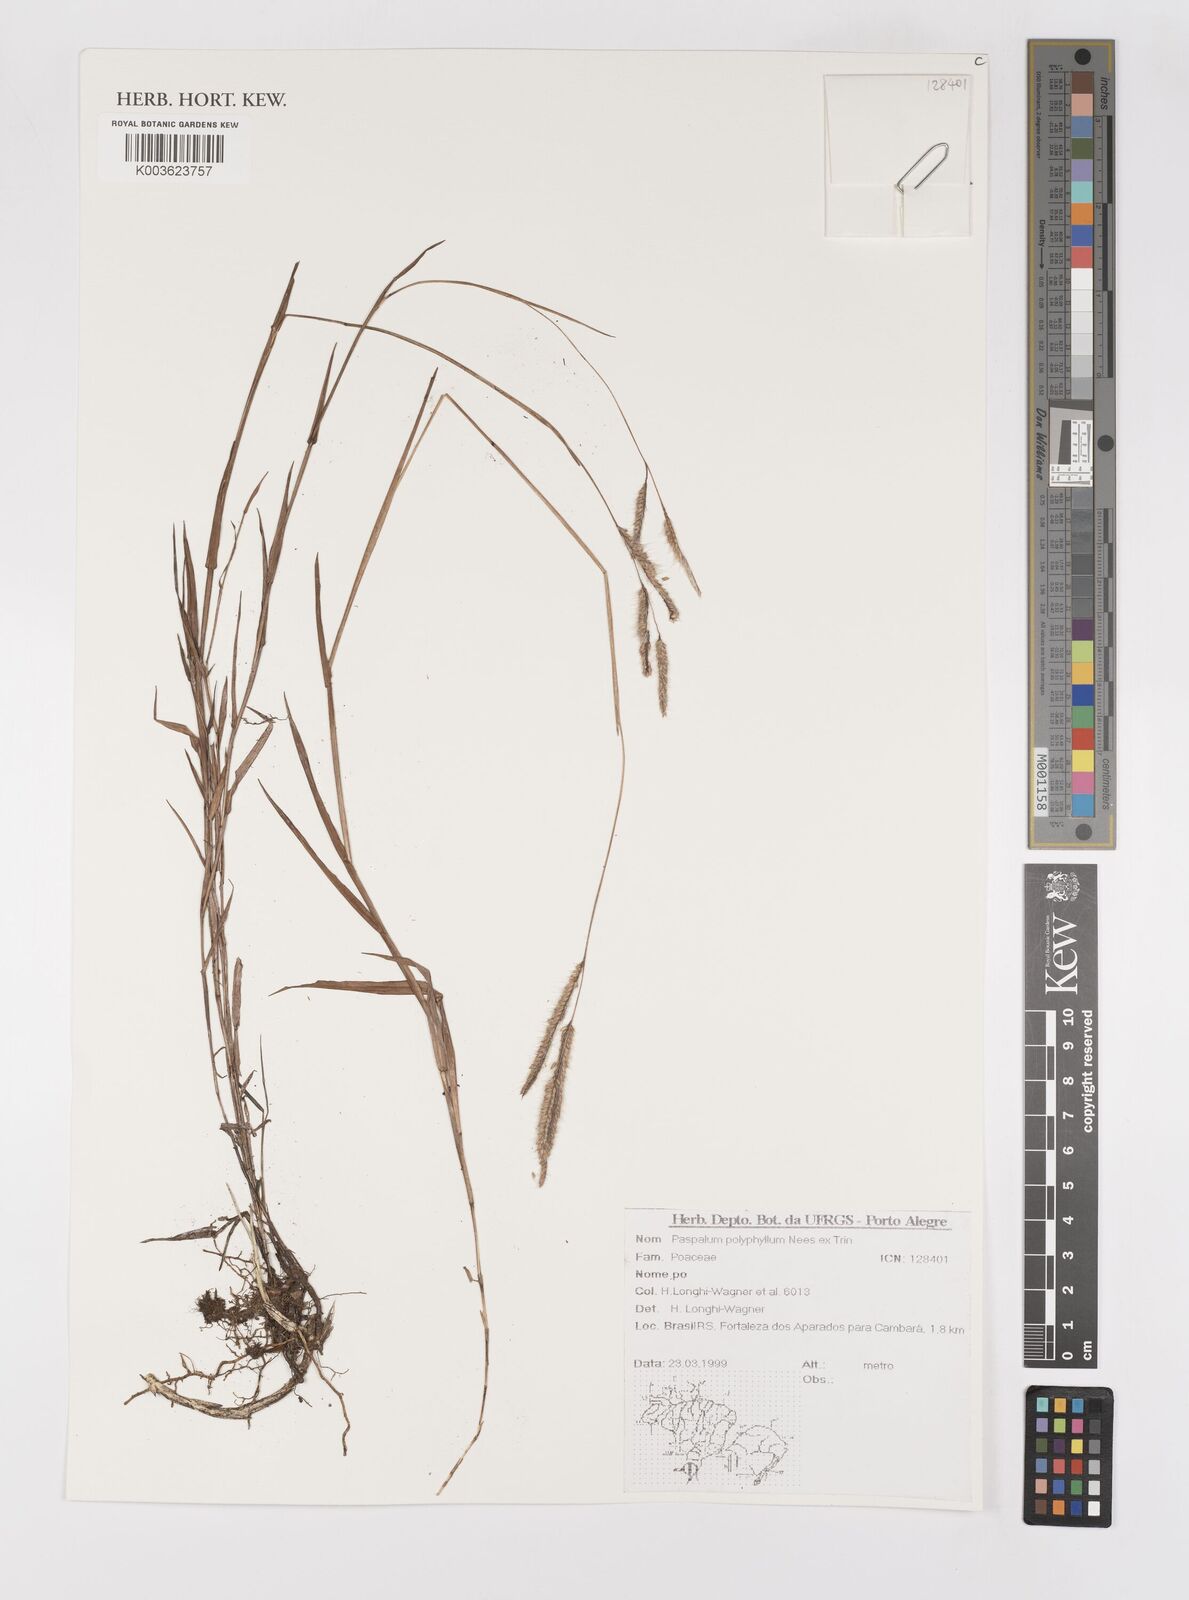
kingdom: Plantae
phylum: Tracheophyta
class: Liliopsida
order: Poales
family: Poaceae
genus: Paspalum
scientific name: Paspalum polyphyllum
